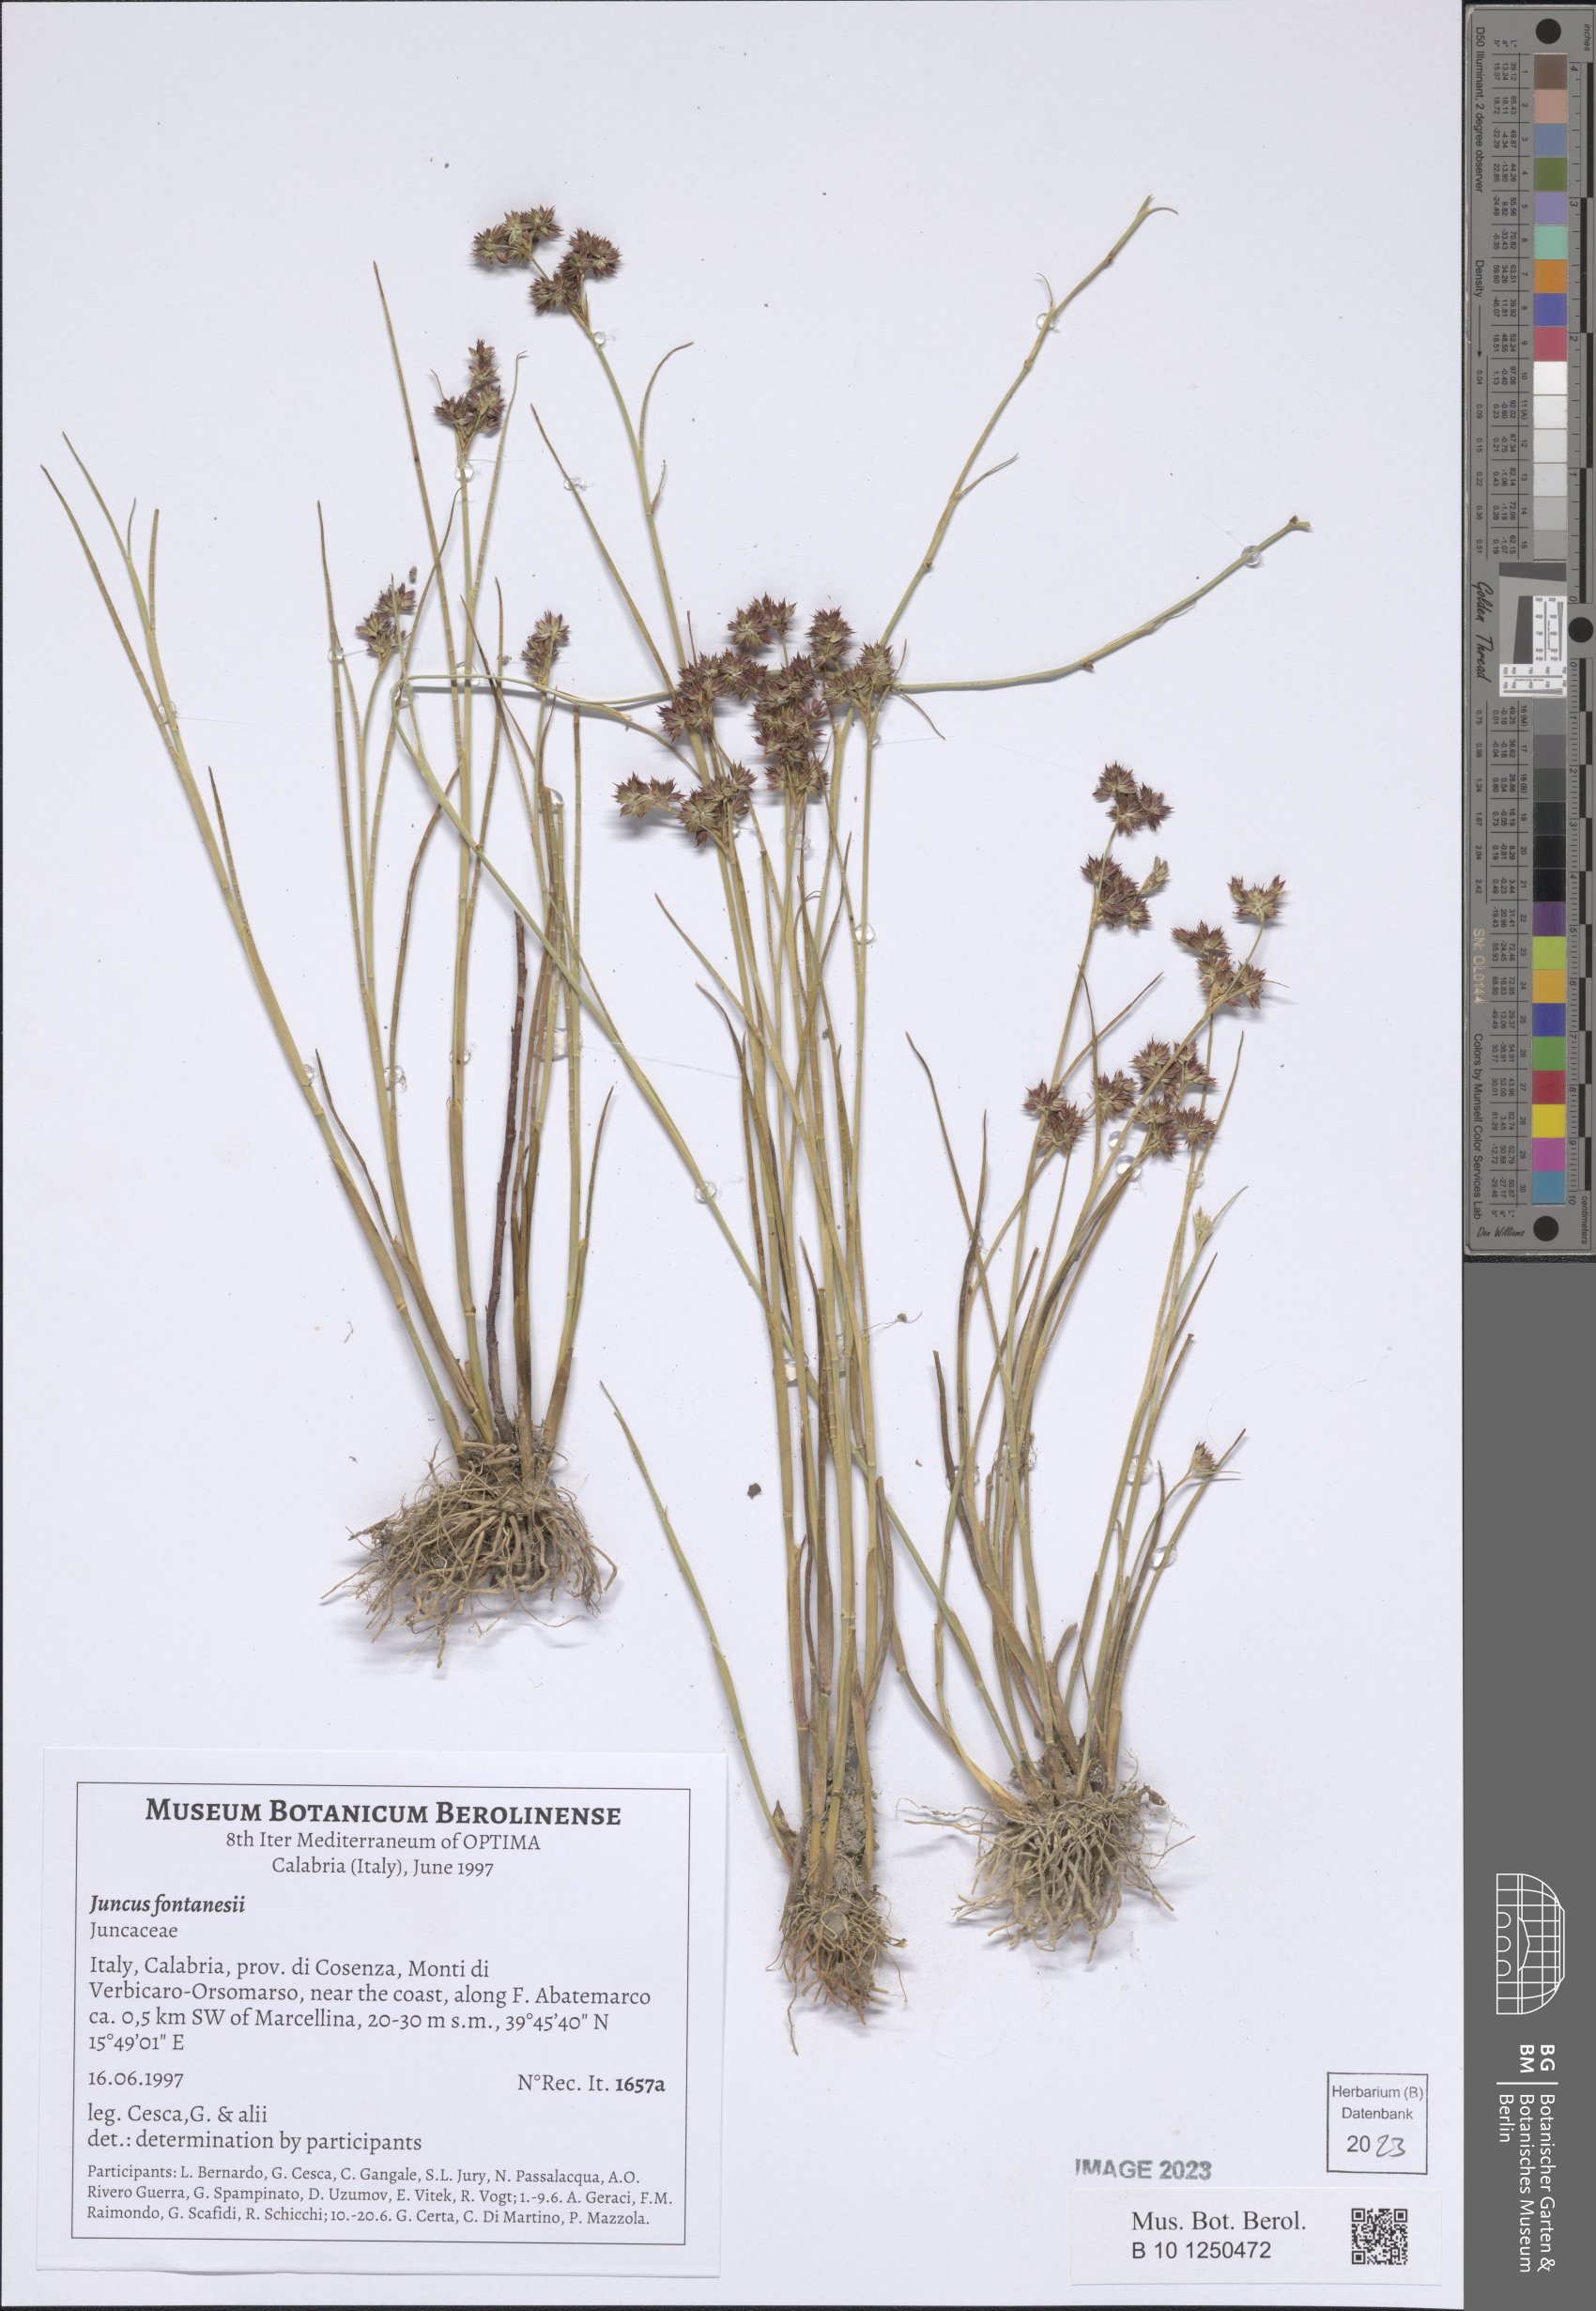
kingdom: Plantae
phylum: Tracheophyta
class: Liliopsida
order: Poales
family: Juncaceae
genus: Juncus
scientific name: Juncus fontanesii
